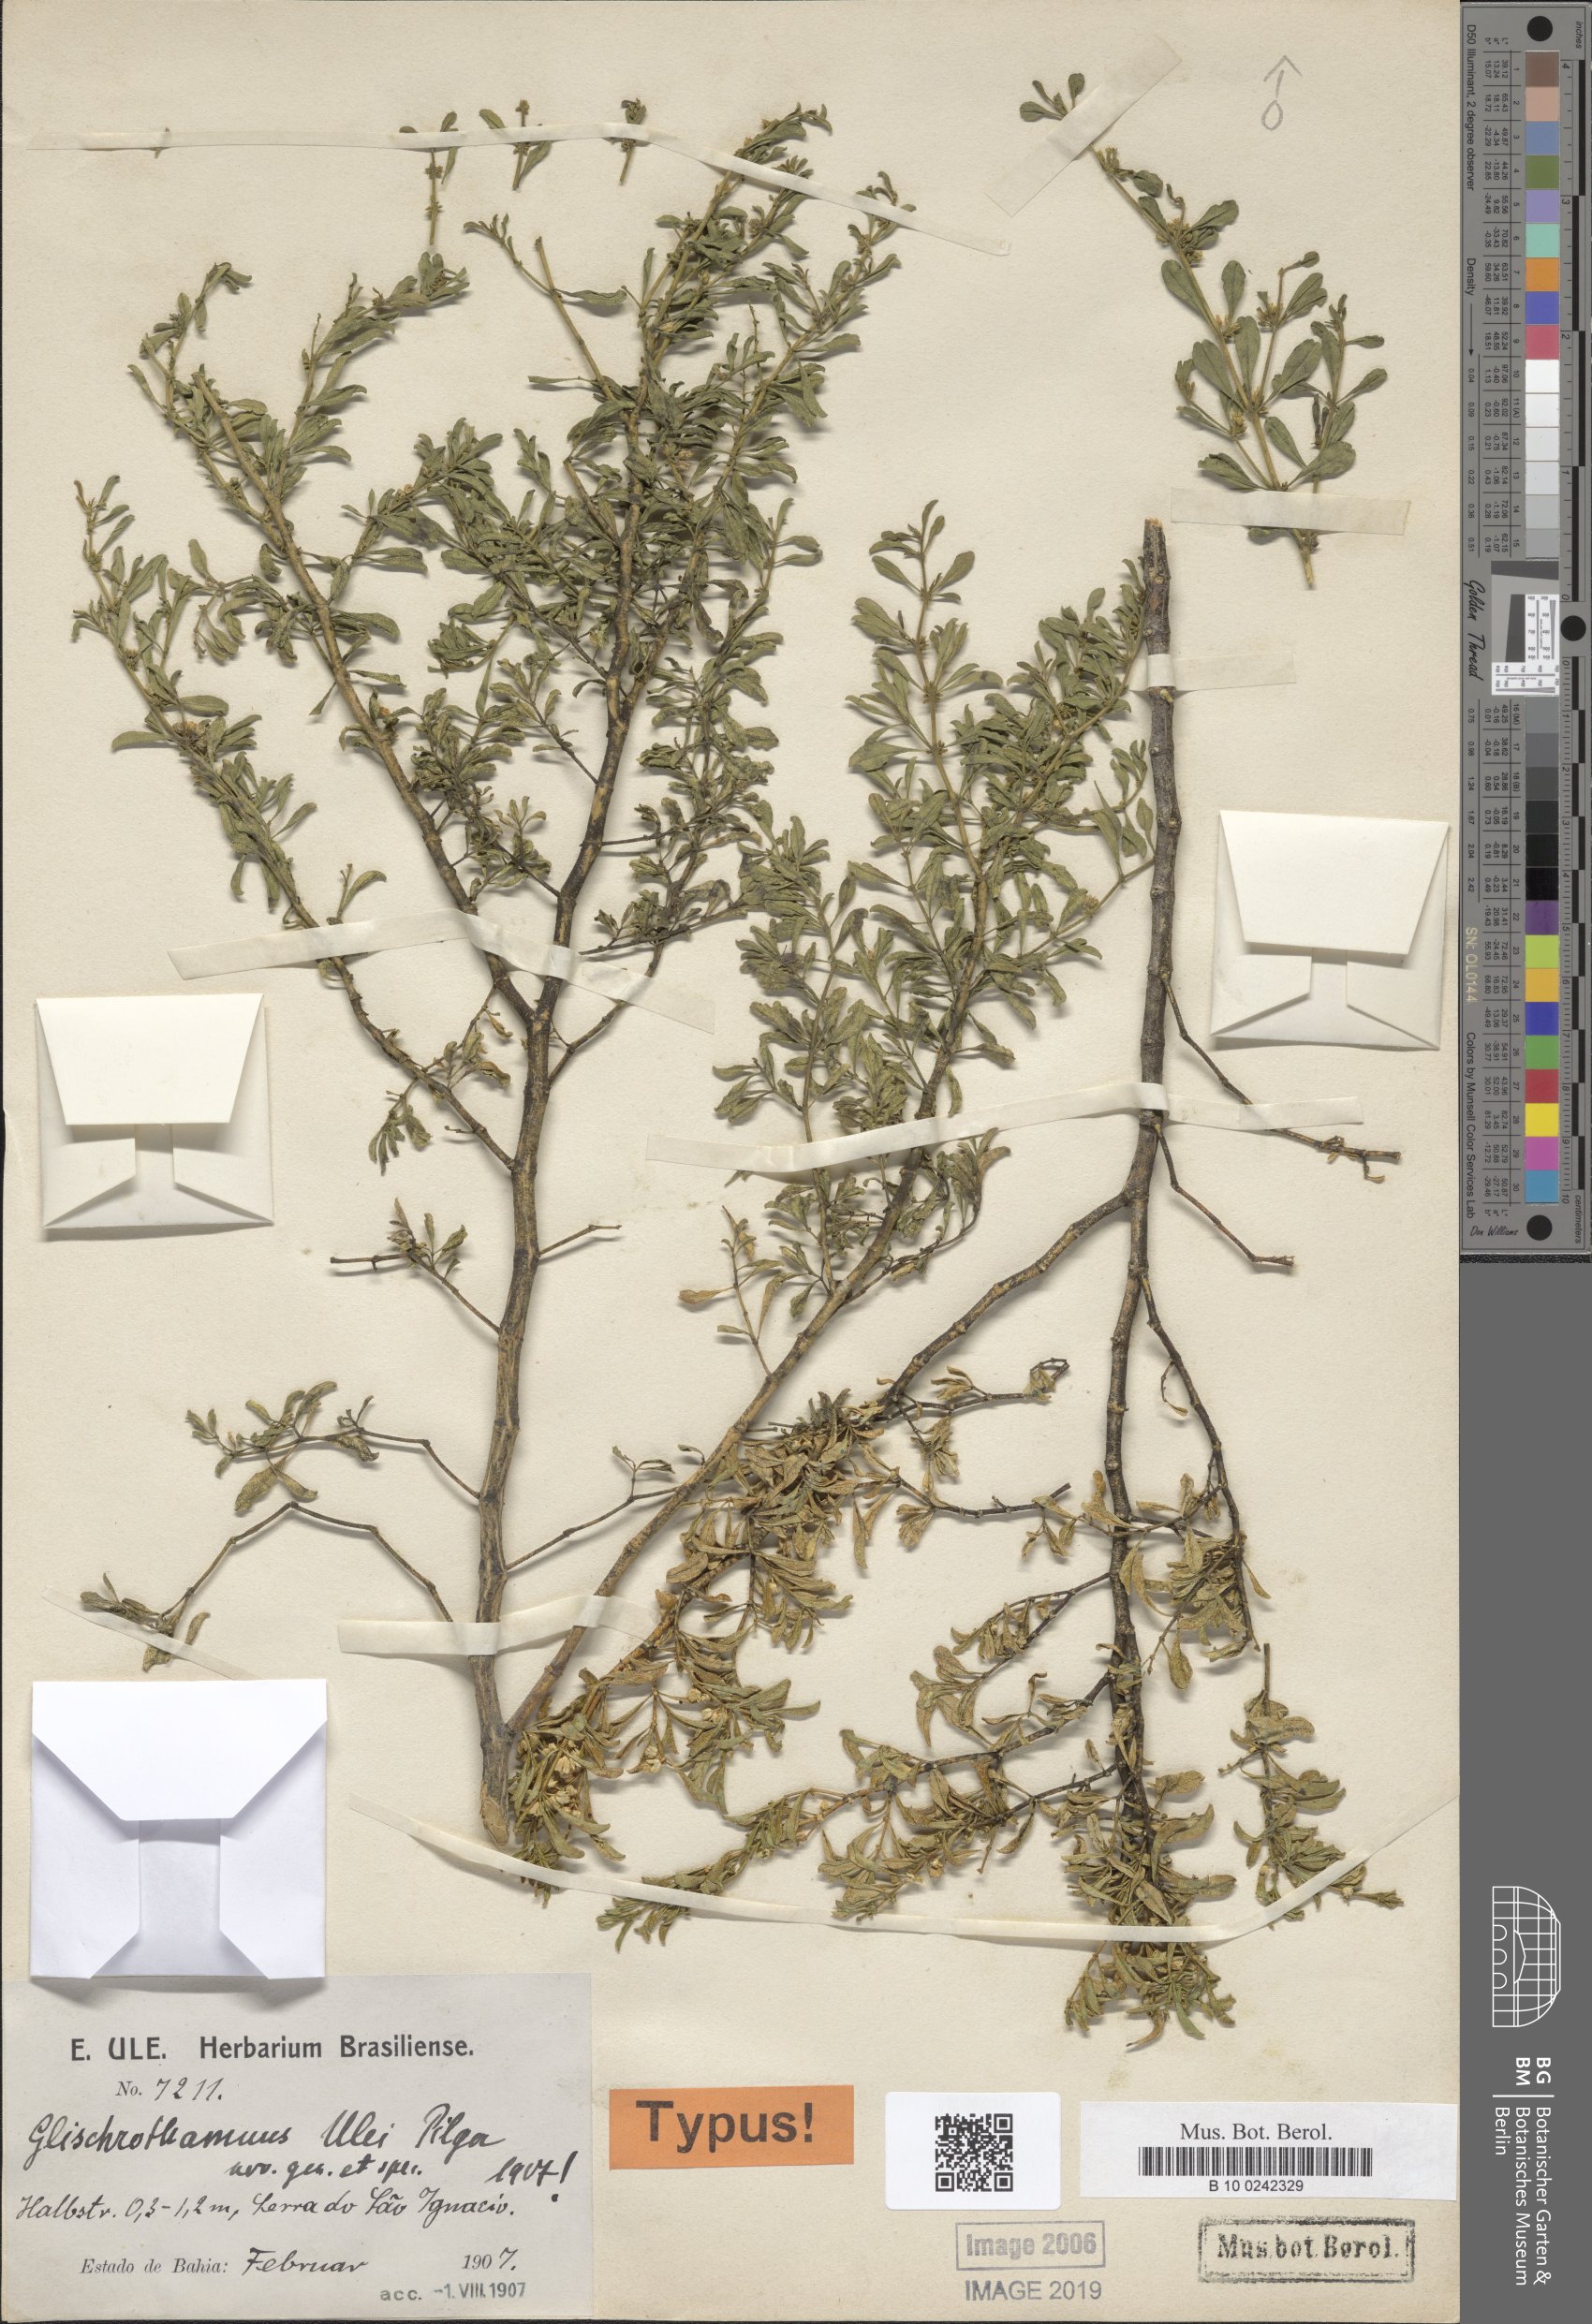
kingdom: Plantae
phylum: Tracheophyta
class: Magnoliopsida
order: Caryophyllales
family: Molluginaceae
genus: Mollugo
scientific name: Mollugo ulei
